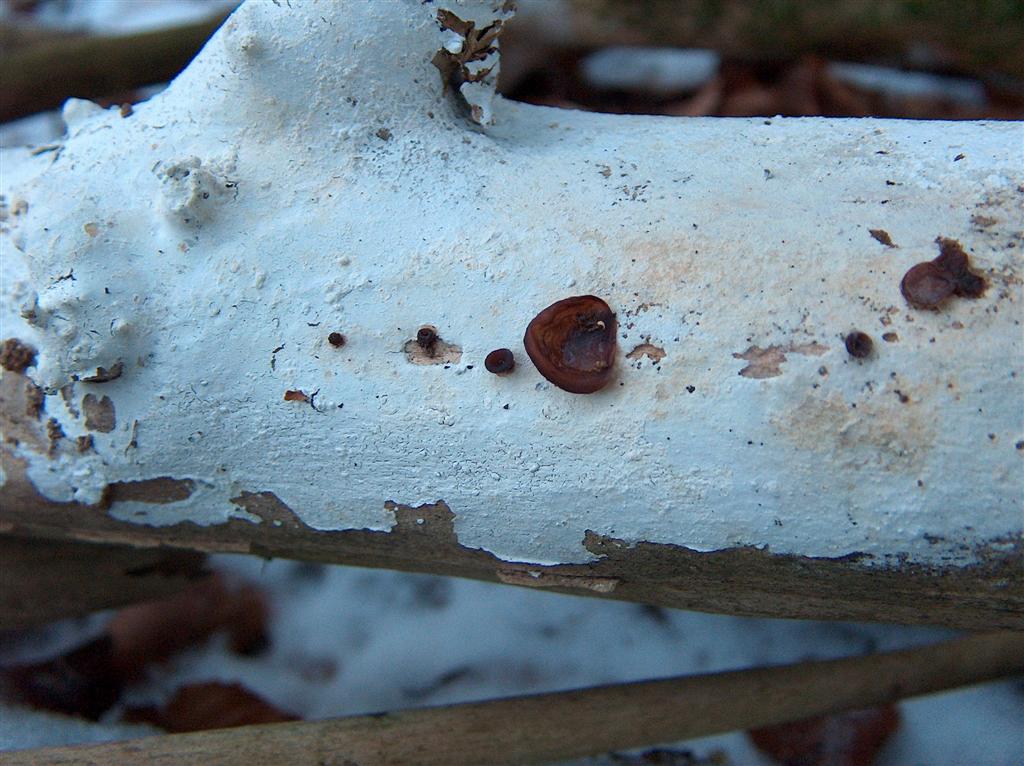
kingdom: Fungi
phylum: Basidiomycota
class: Agaricomycetes
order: Corticiales
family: Corticiaceae
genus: Lyomyces
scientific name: Lyomyces sambuci
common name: almindelig hyldehinde
